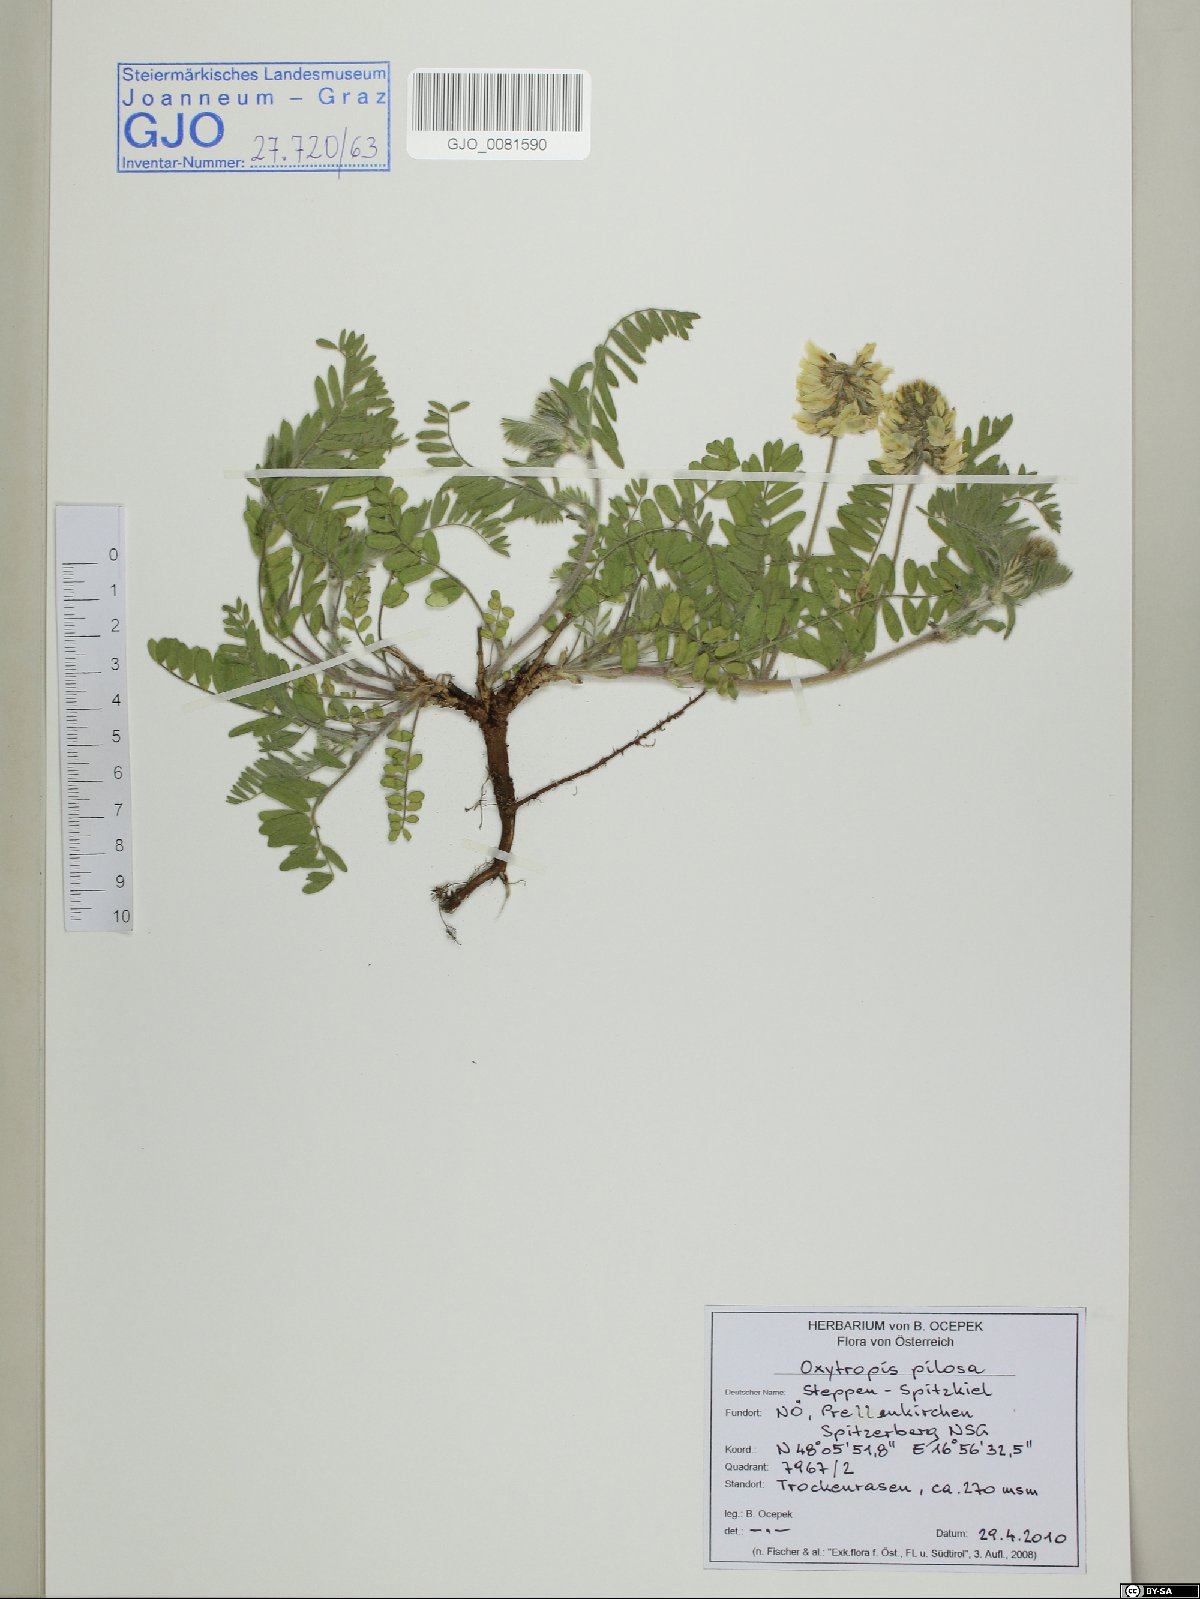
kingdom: Plantae
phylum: Tracheophyta
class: Magnoliopsida
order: Fabales
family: Fabaceae
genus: Oxytropis
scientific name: Oxytropis pilosa
